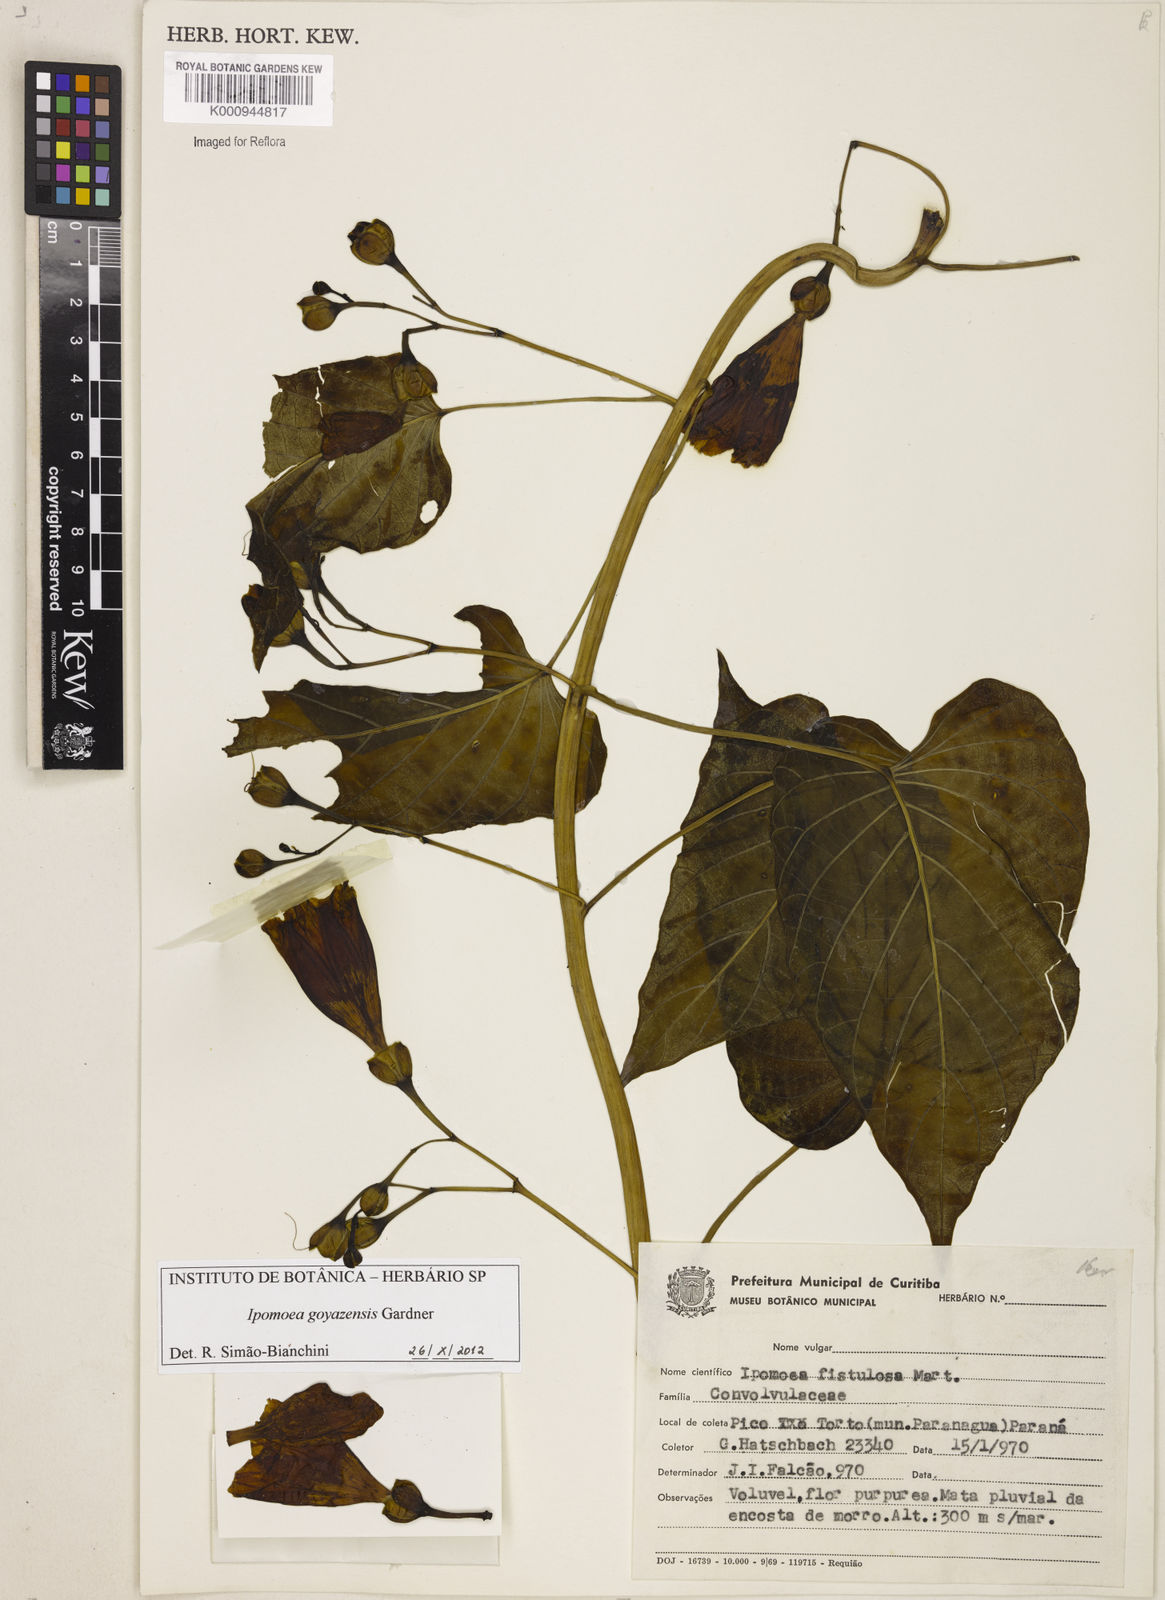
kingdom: Plantae
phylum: Tracheophyta
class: Magnoliopsida
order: Solanales
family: Convolvulaceae
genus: Ipomoea
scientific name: Ipomoea goyazensis
